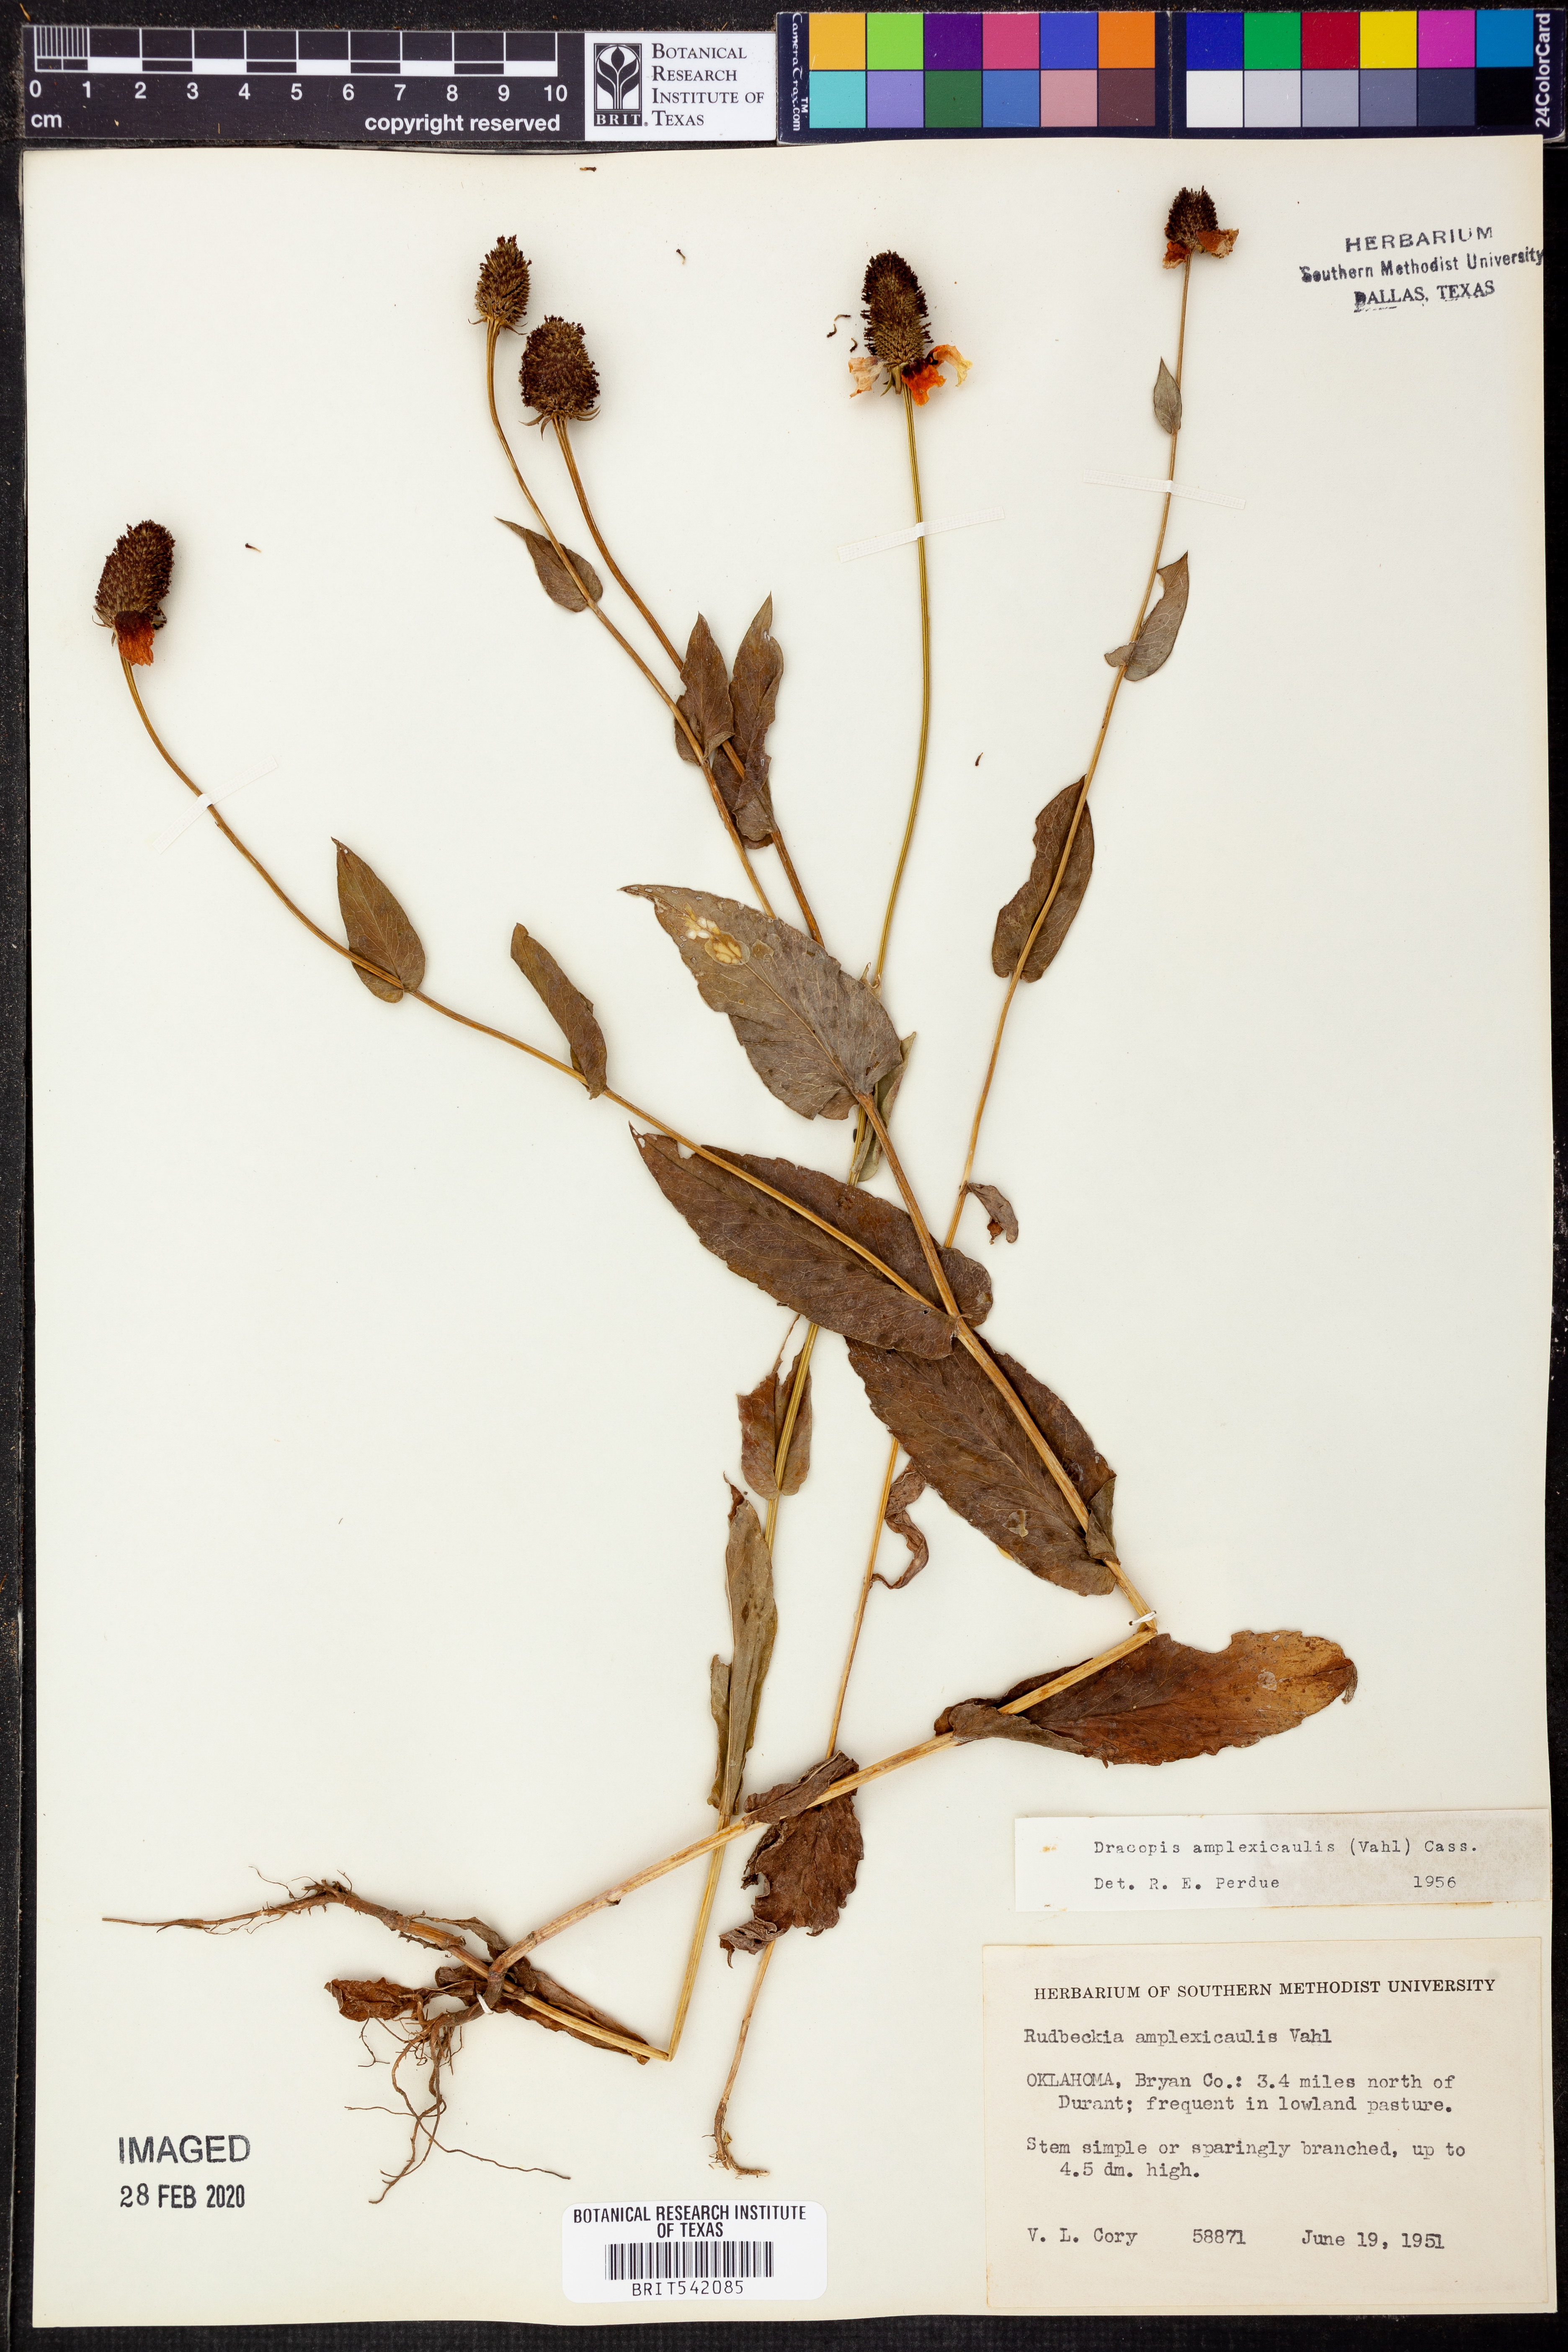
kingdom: Plantae
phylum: Tracheophyta
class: Magnoliopsida
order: Asterales
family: Asteraceae
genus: Rudbeckia
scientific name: Rudbeckia amplexicaulis
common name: Clasping-leaf coneflower
